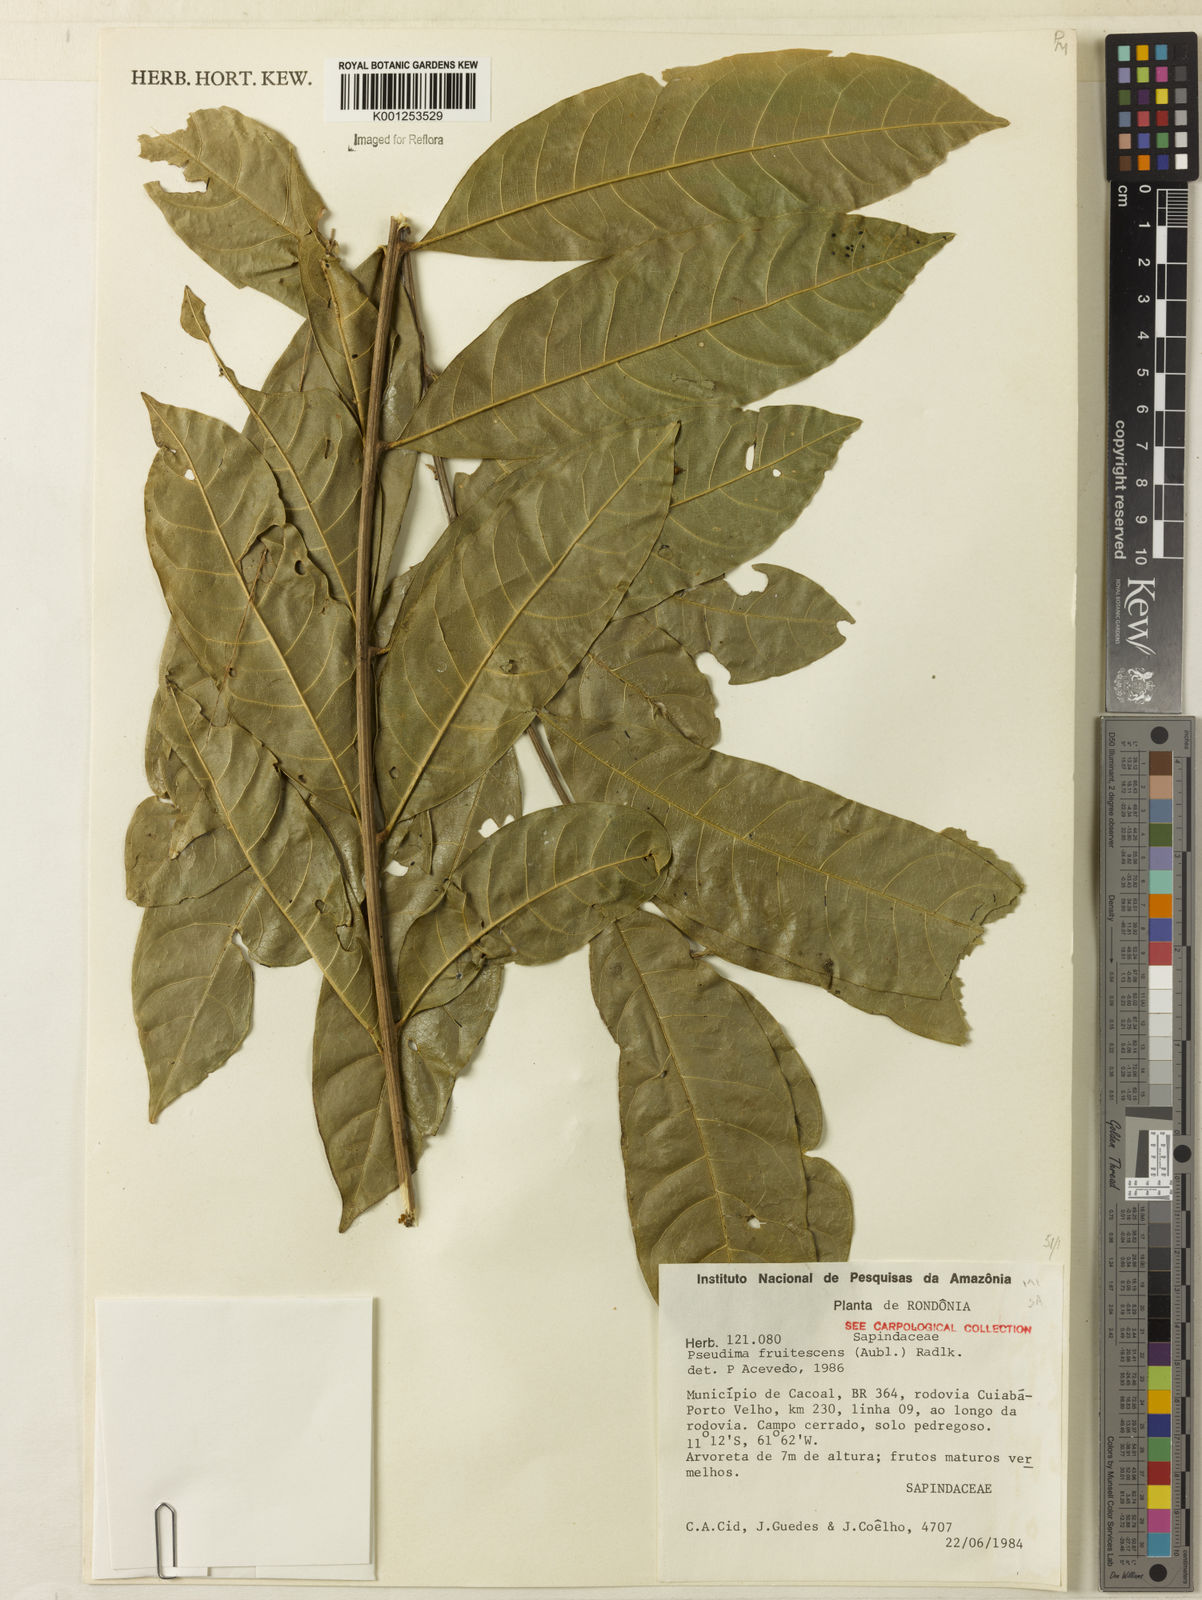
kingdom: Plantae
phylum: Tracheophyta
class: Magnoliopsida
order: Sapindales
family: Sapindaceae
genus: Pseudima
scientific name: Pseudima frutescens
